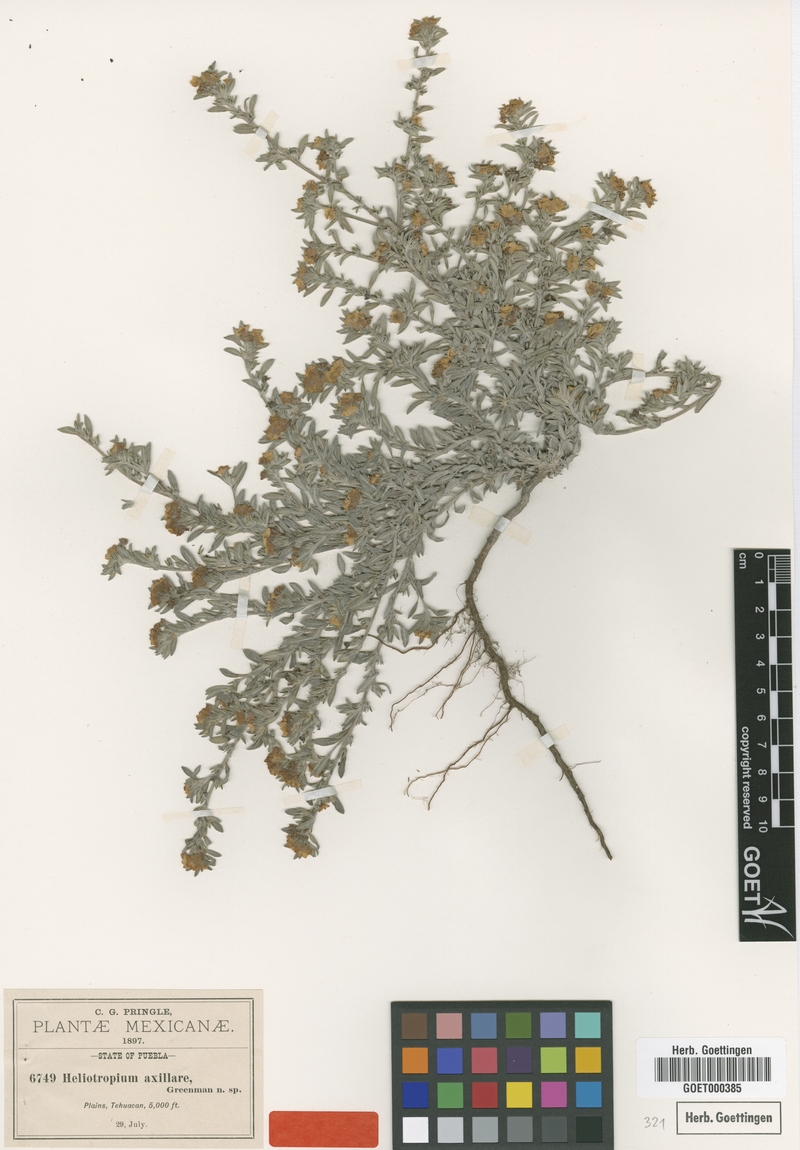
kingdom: Plantae
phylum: Tracheophyta
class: Magnoliopsida
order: Boraginales
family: Heliotropiaceae
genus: Euploca
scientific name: Euploca axillaris
